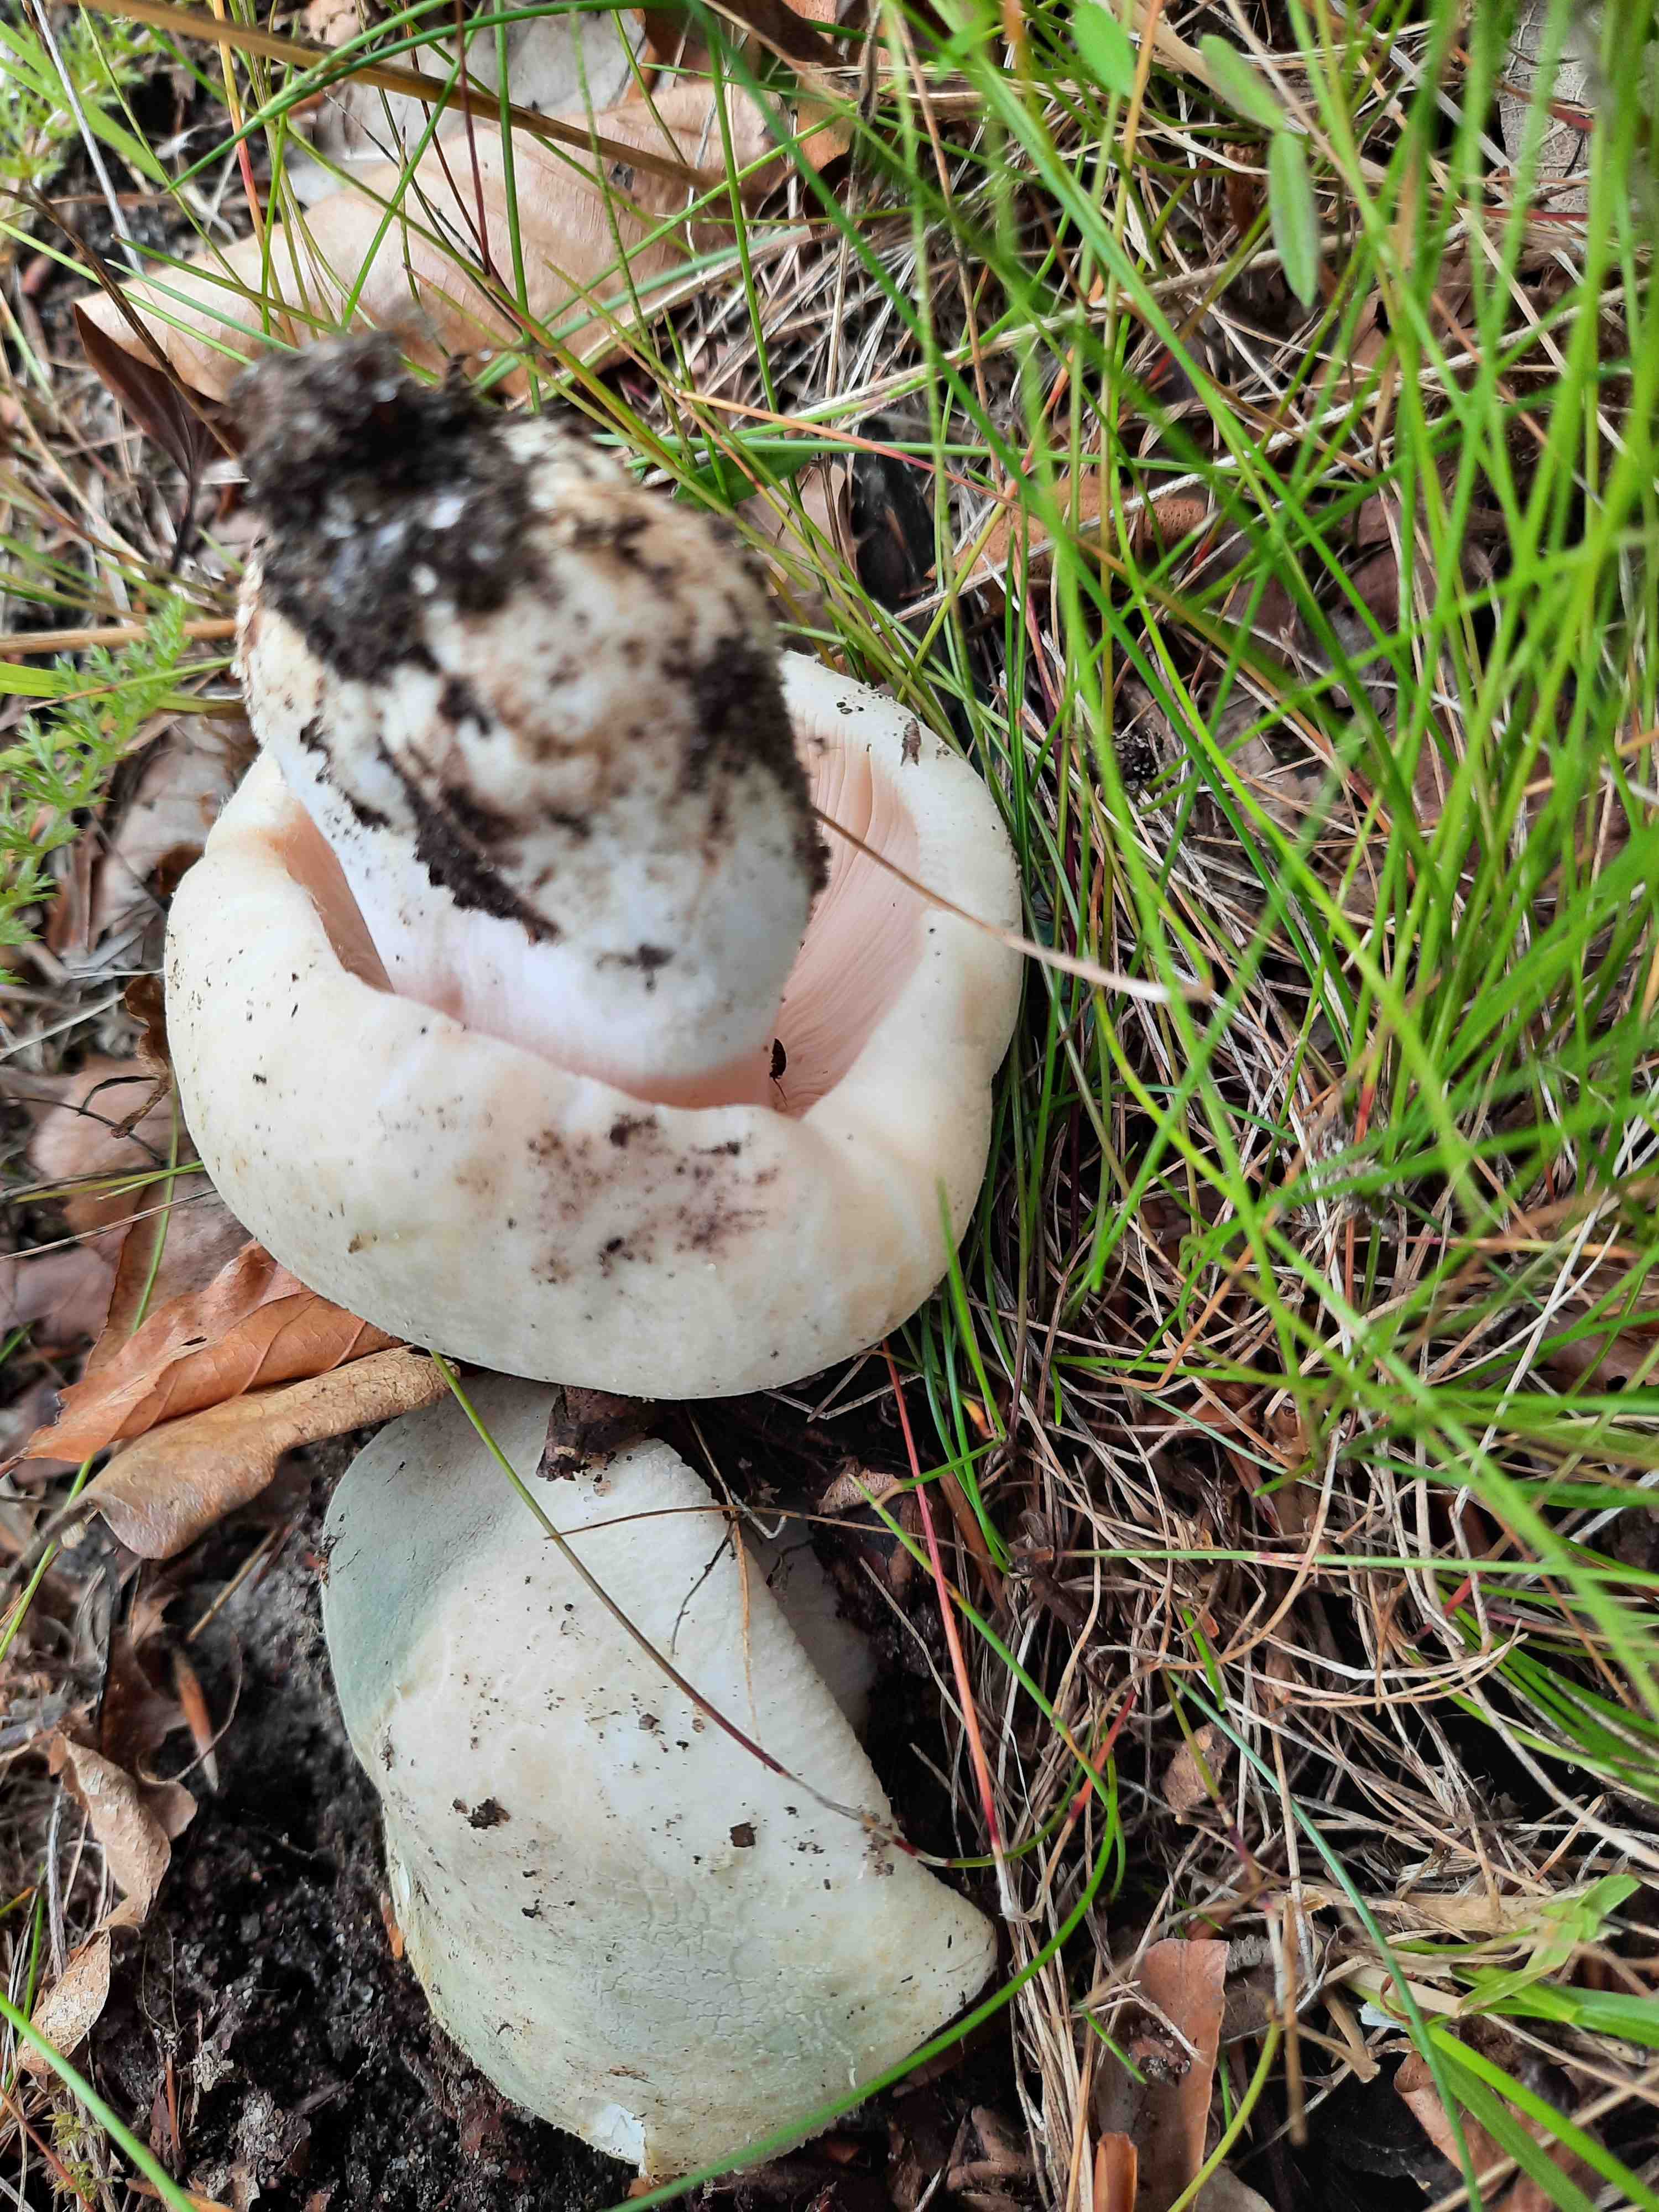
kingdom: Fungi
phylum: Basidiomycota
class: Agaricomycetes
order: Russulales
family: Russulaceae
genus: Russula
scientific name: Russula virescens
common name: spanskgrøn skørhat
